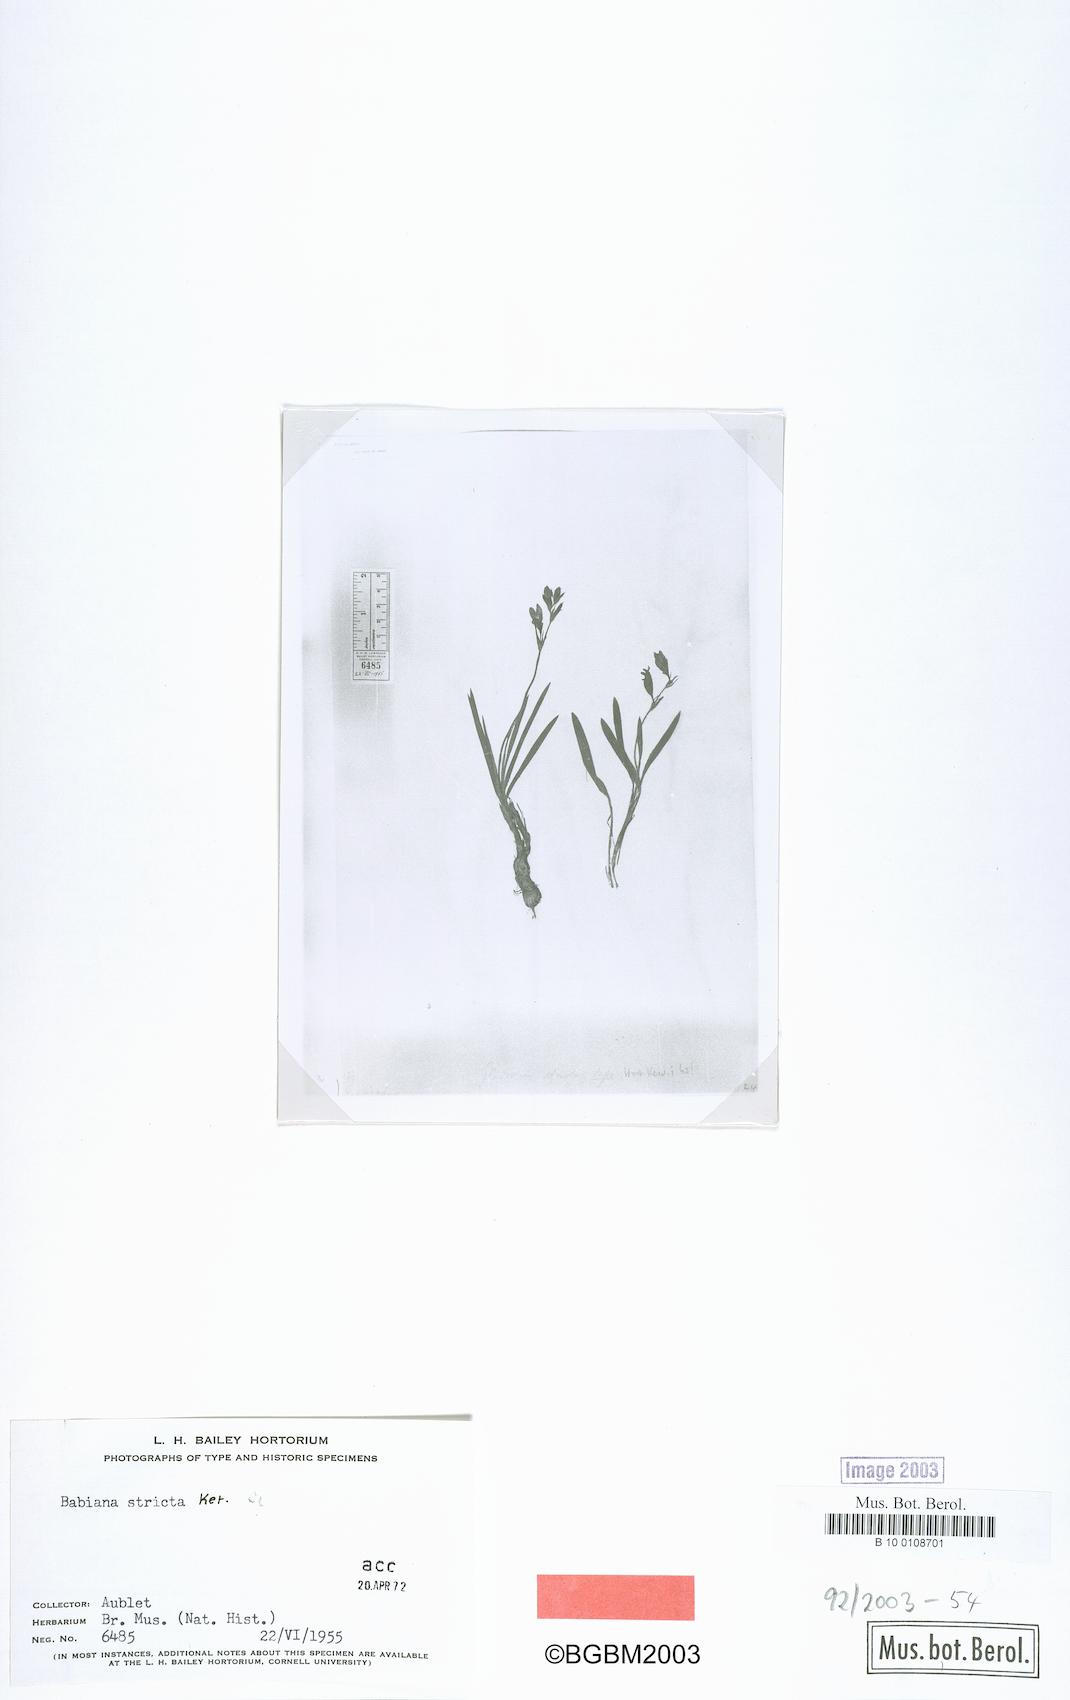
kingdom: Plantae
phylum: Tracheophyta
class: Liliopsida
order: Asparagales
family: Iridaceae
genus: Babiana
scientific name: Babiana nervosa
